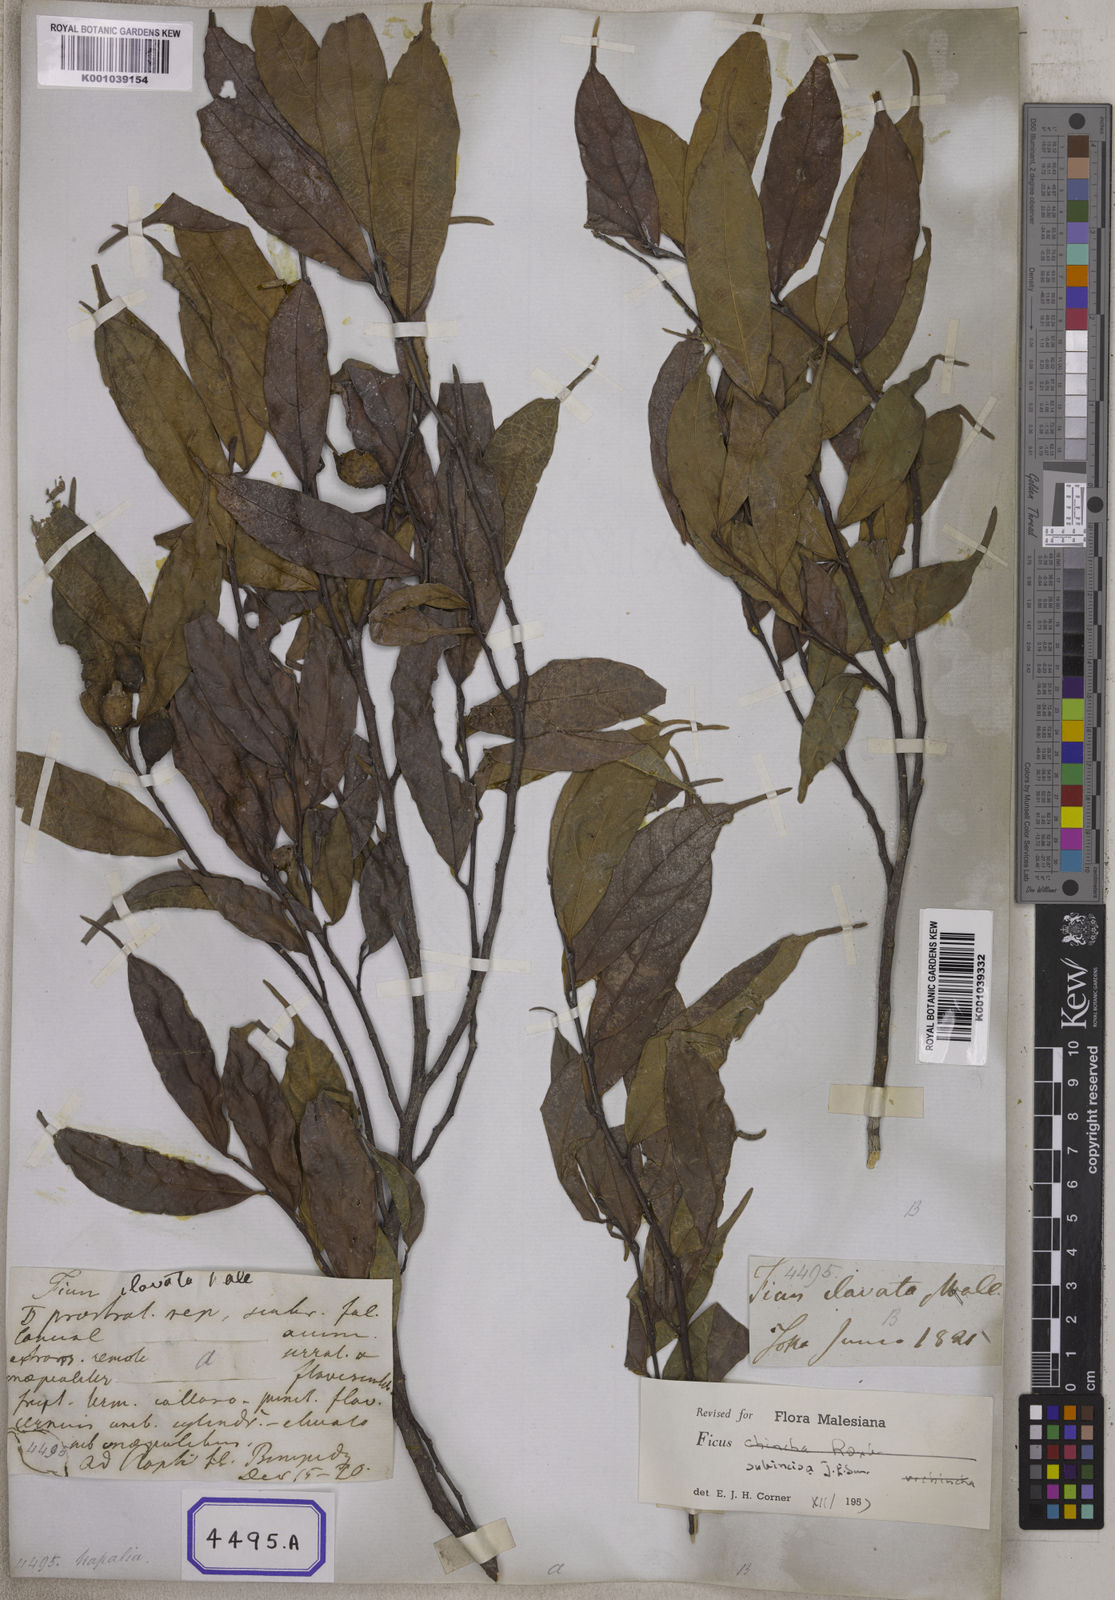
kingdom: Plantae
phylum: Tracheophyta
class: Magnoliopsida
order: Rosales
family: Moraceae
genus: Ficus
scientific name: Ficus
